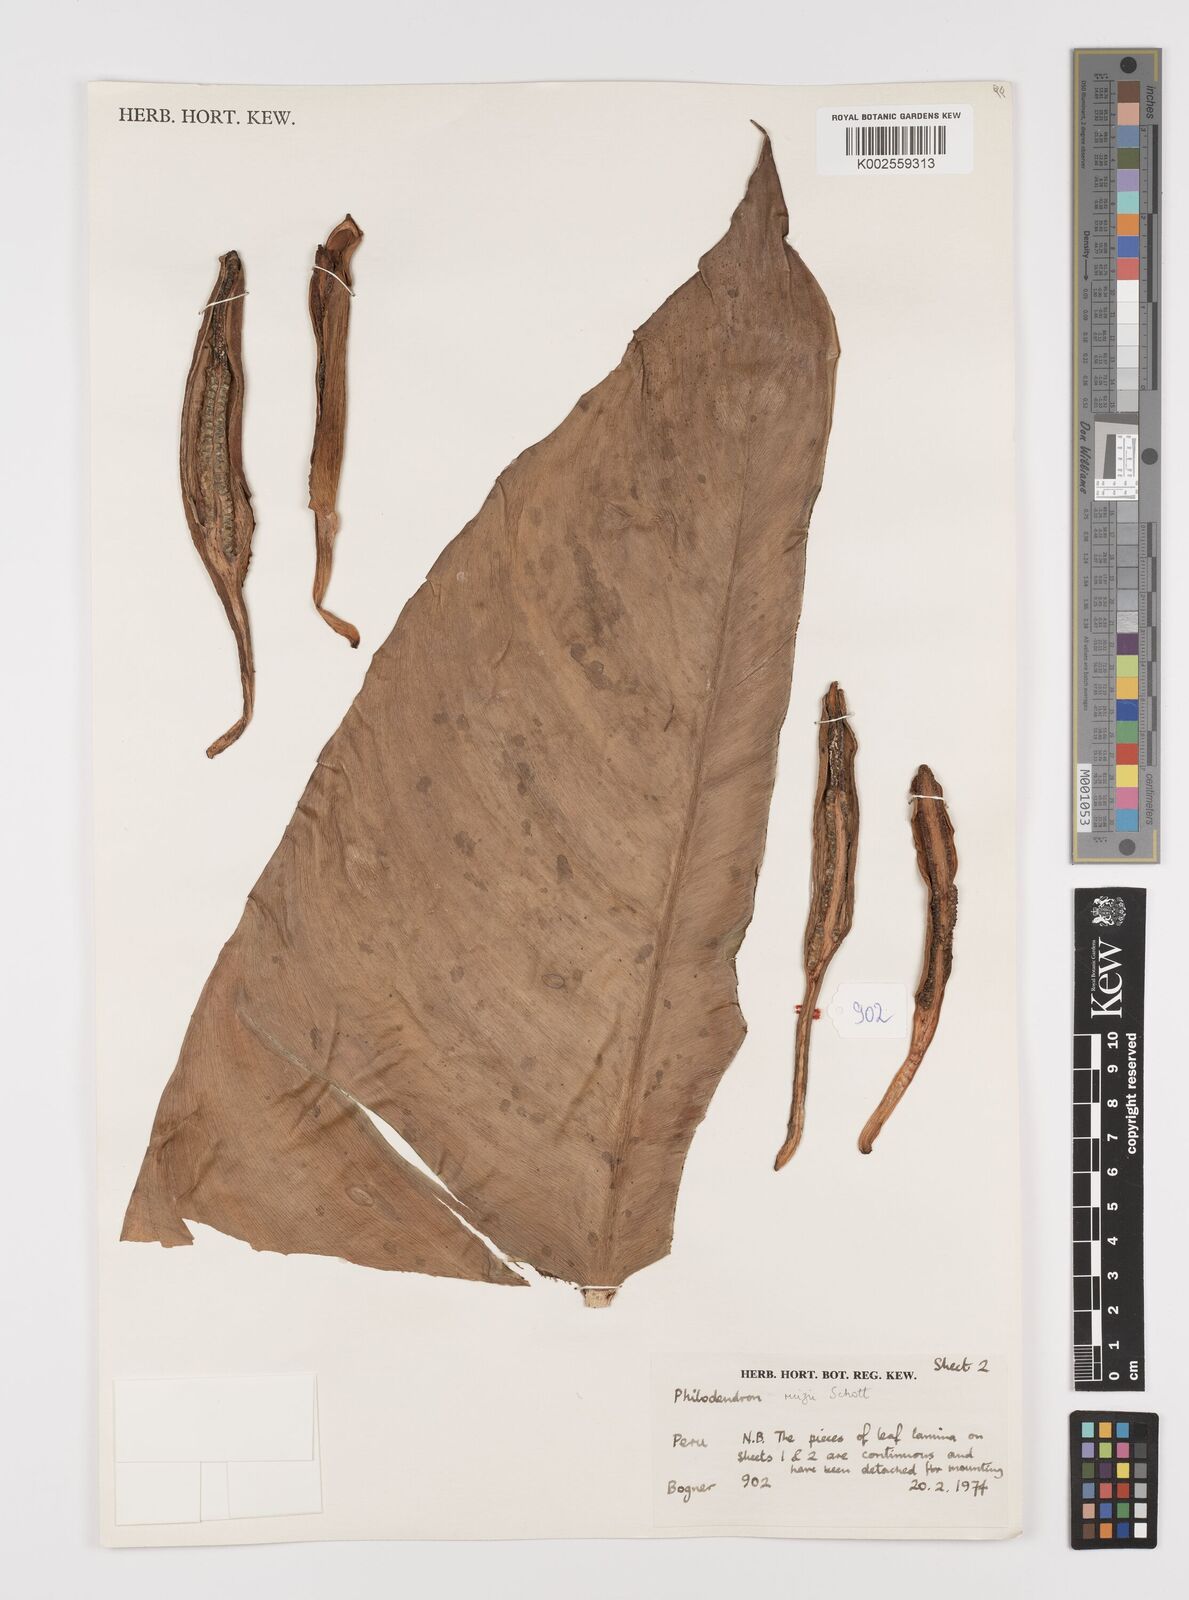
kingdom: Plantae
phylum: Tracheophyta
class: Liliopsida
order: Alismatales
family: Araceae
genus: Philodendron
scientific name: Philodendron ruizii
